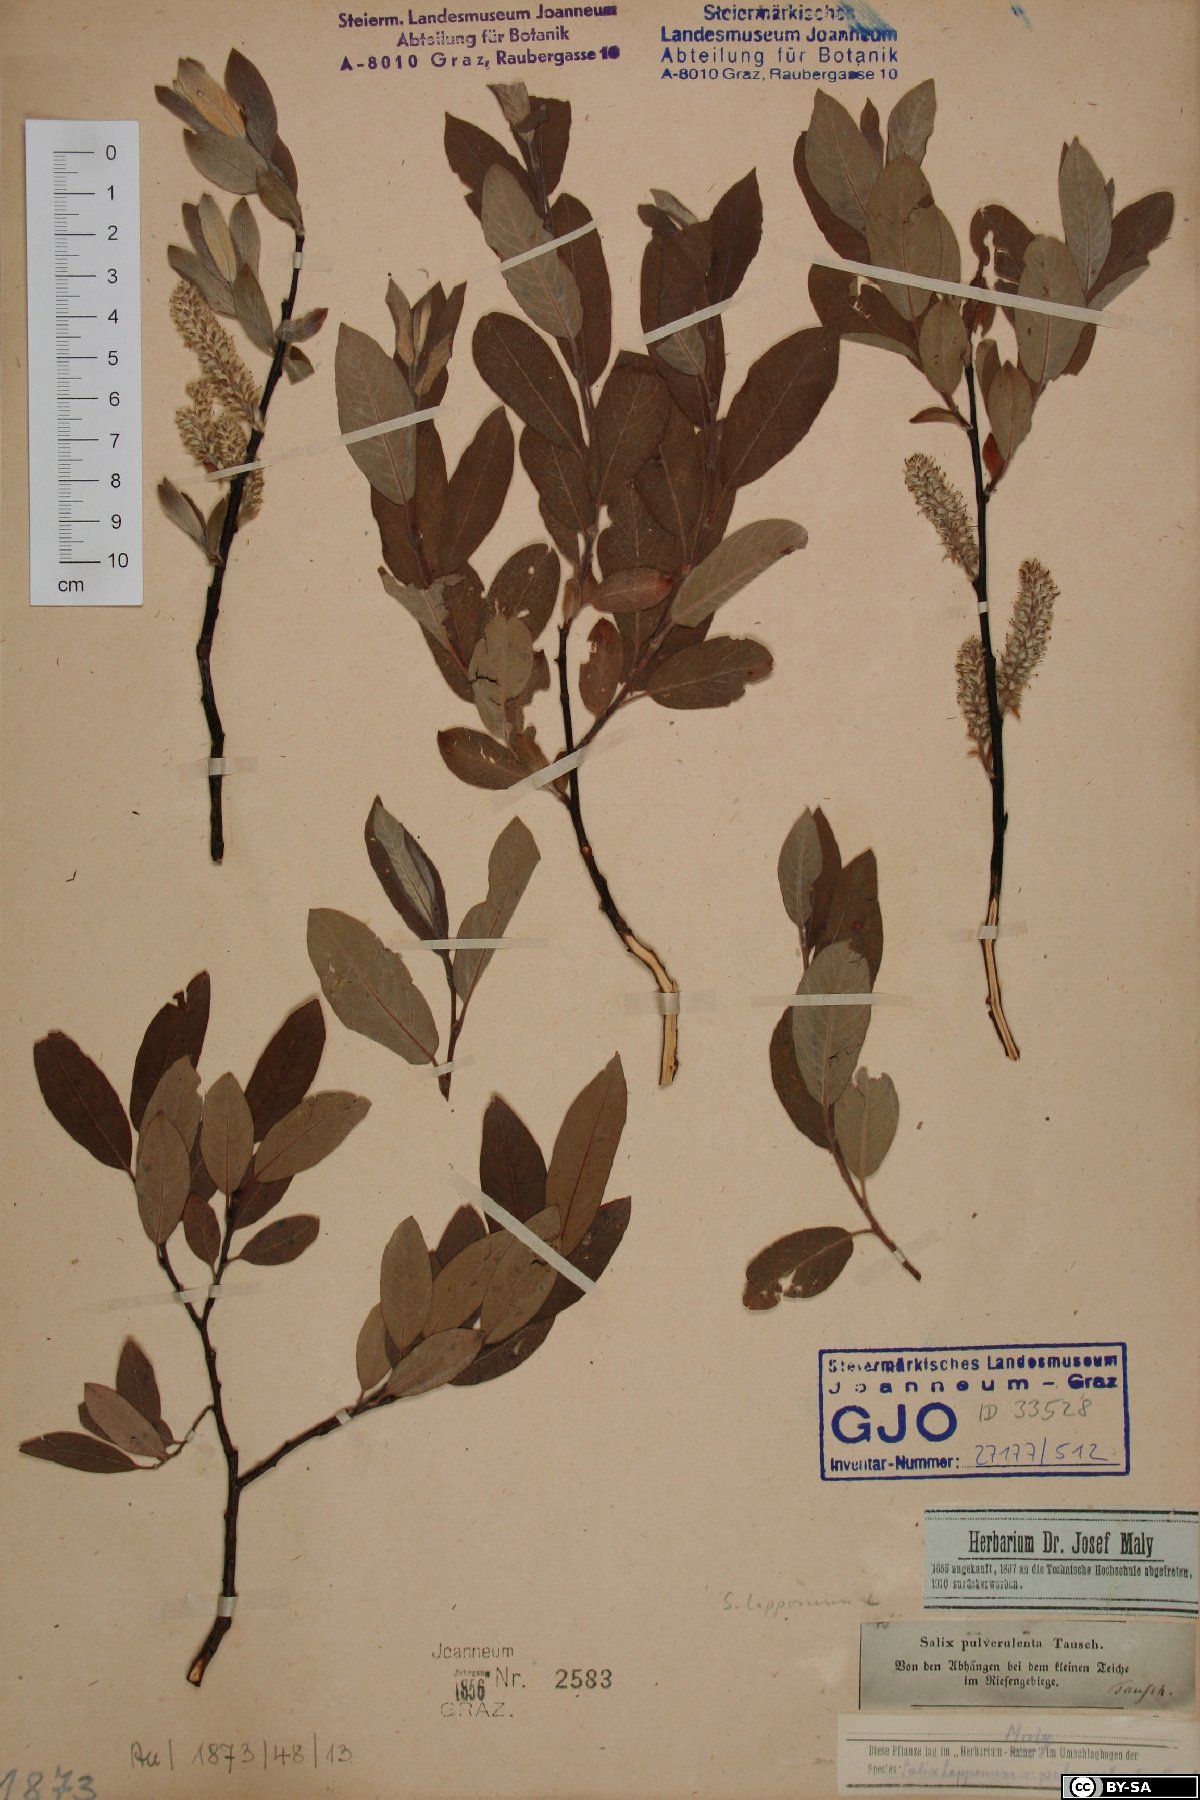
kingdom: Plantae
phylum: Tracheophyta
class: Magnoliopsida
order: Malpighiales
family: Salicaceae
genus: Salix
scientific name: Salix lapponum
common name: Downy willow
